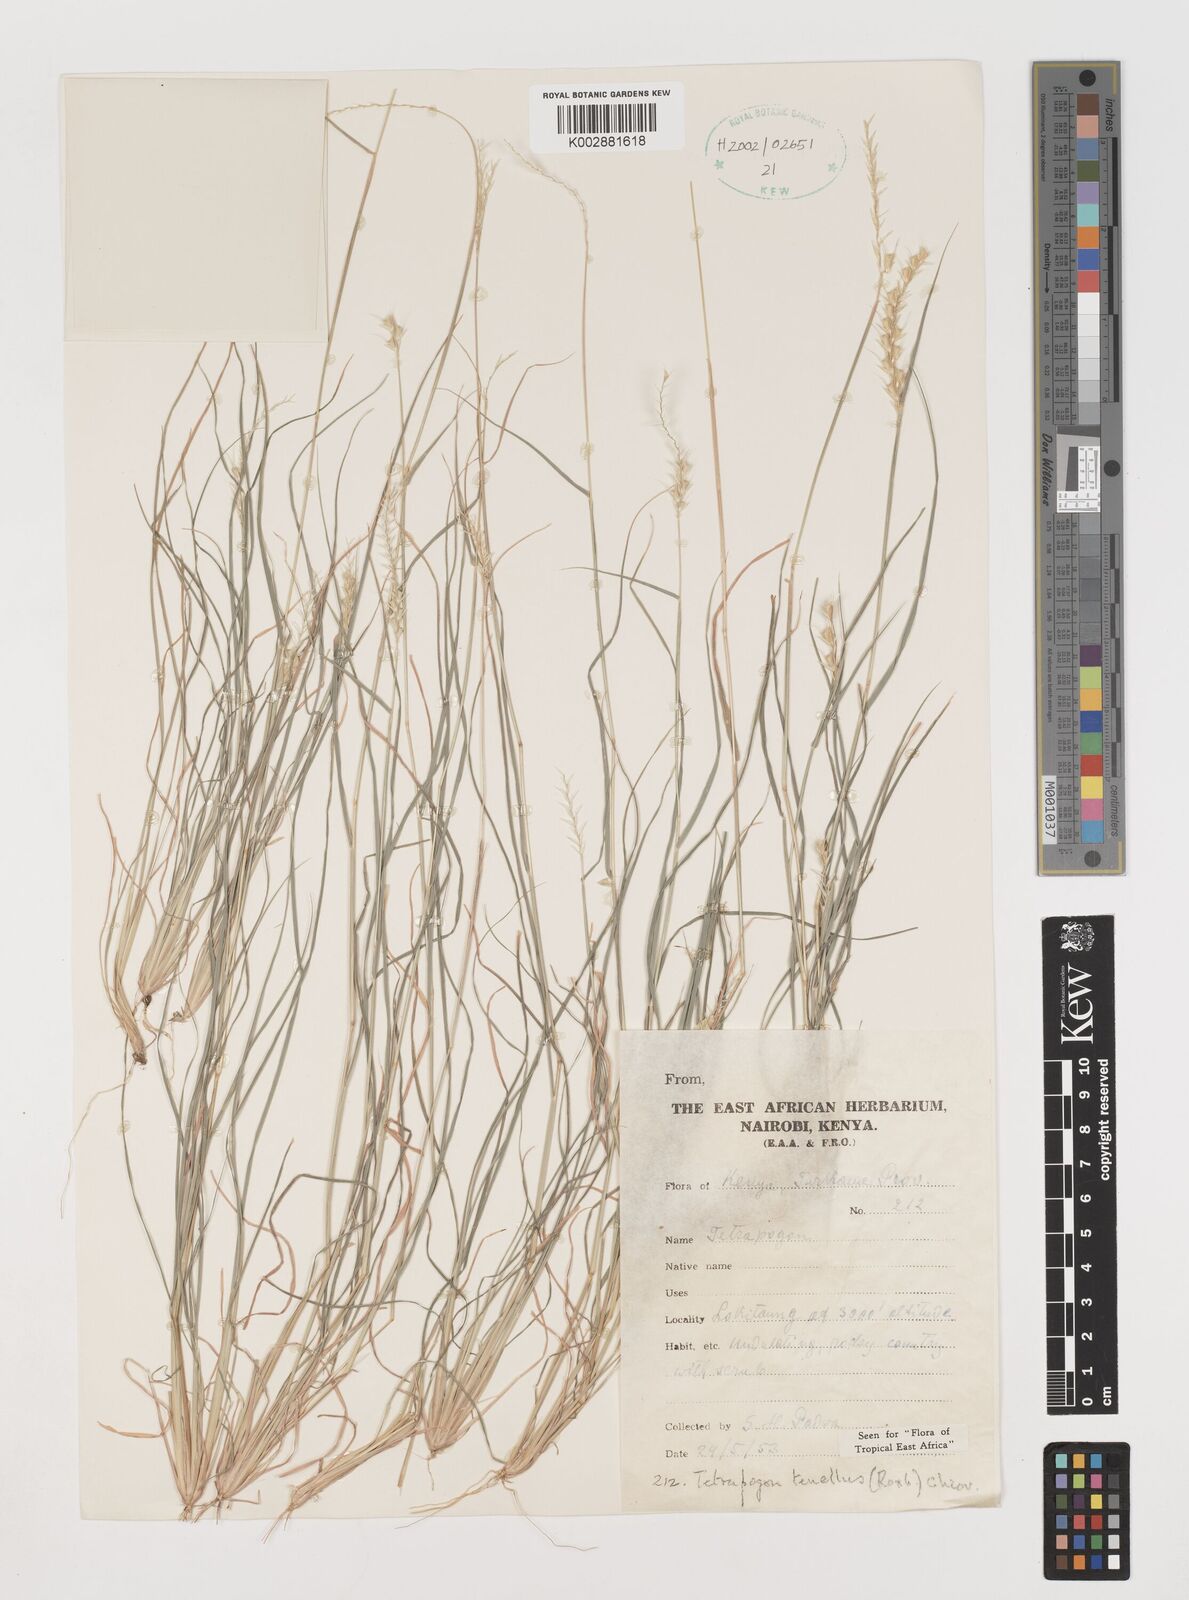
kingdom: Plantae
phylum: Tracheophyta
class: Liliopsida
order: Poales
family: Poaceae
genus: Tetrapogon
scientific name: Tetrapogon tenellus
